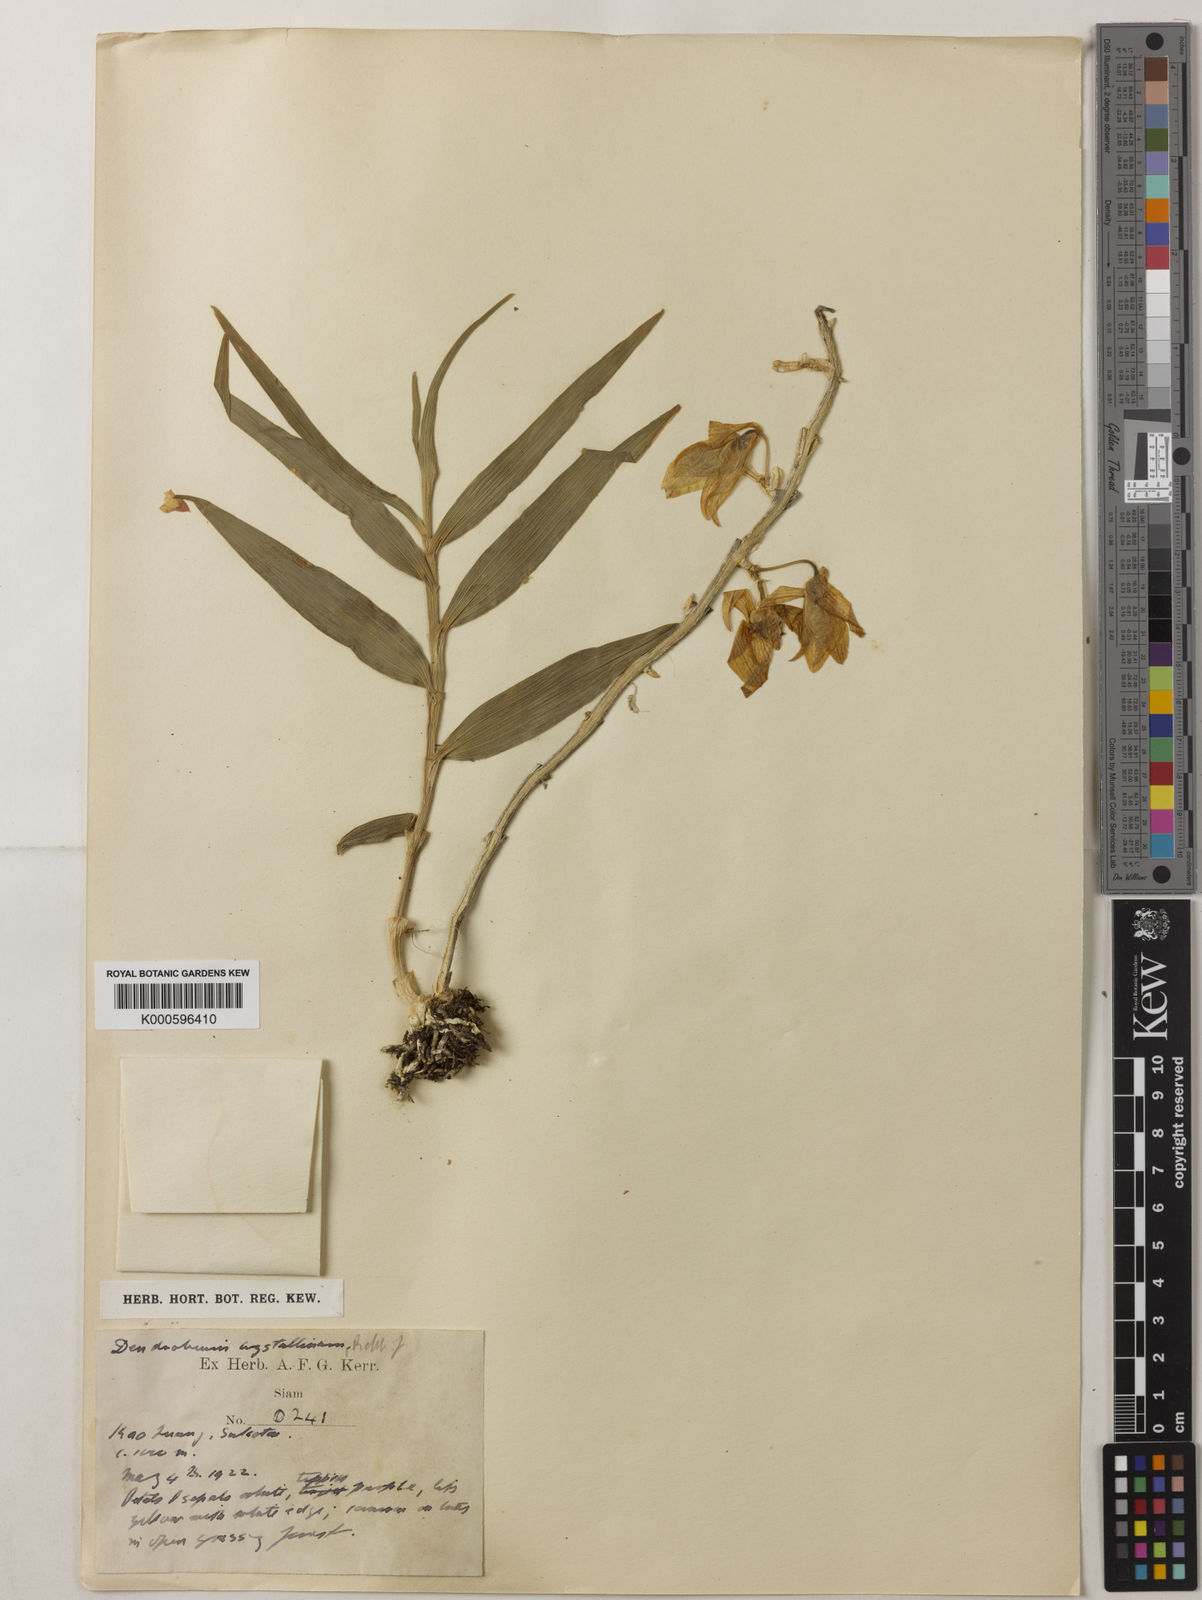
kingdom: Plantae
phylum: Tracheophyta
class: Liliopsida
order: Asparagales
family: Orchidaceae
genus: Dendrobium
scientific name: Dendrobium crystallinum
